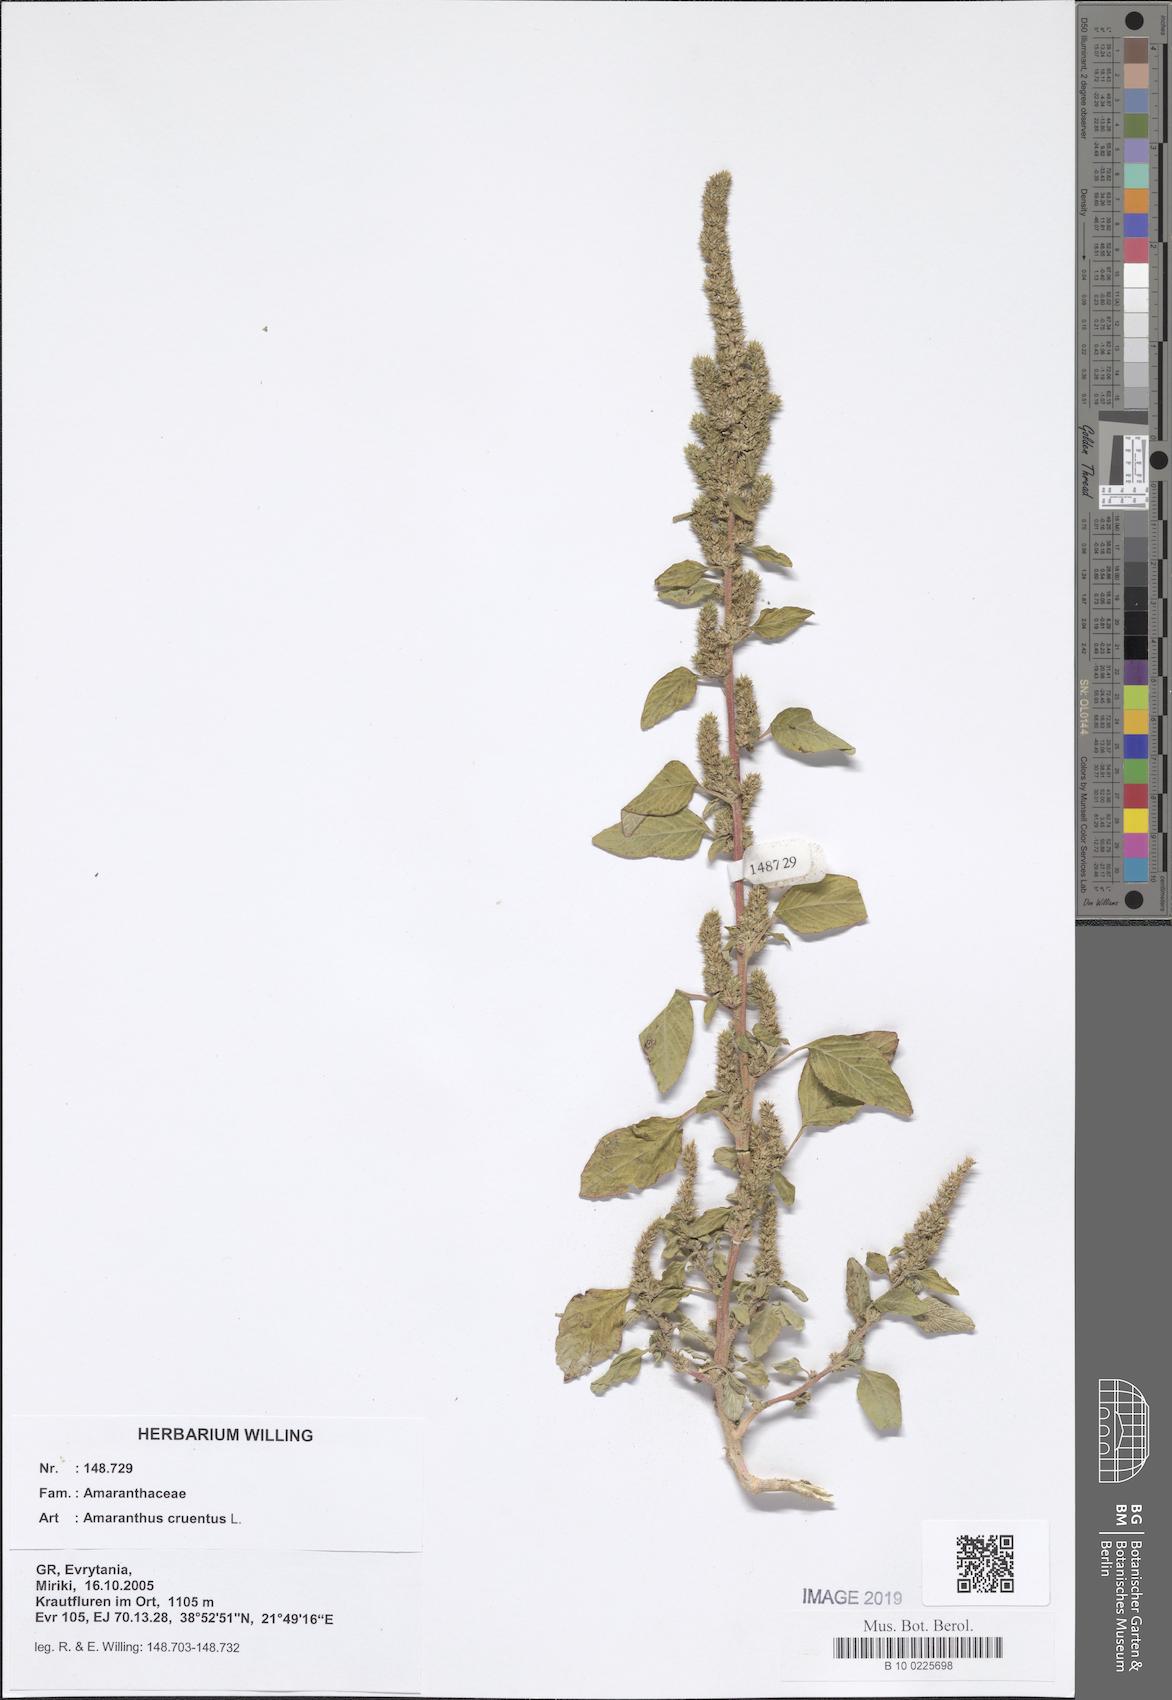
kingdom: Plantae
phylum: Tracheophyta
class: Magnoliopsida
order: Caryophyllales
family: Amaranthaceae
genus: Amaranthus
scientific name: Amaranthus cruentus
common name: Purple amaranth
